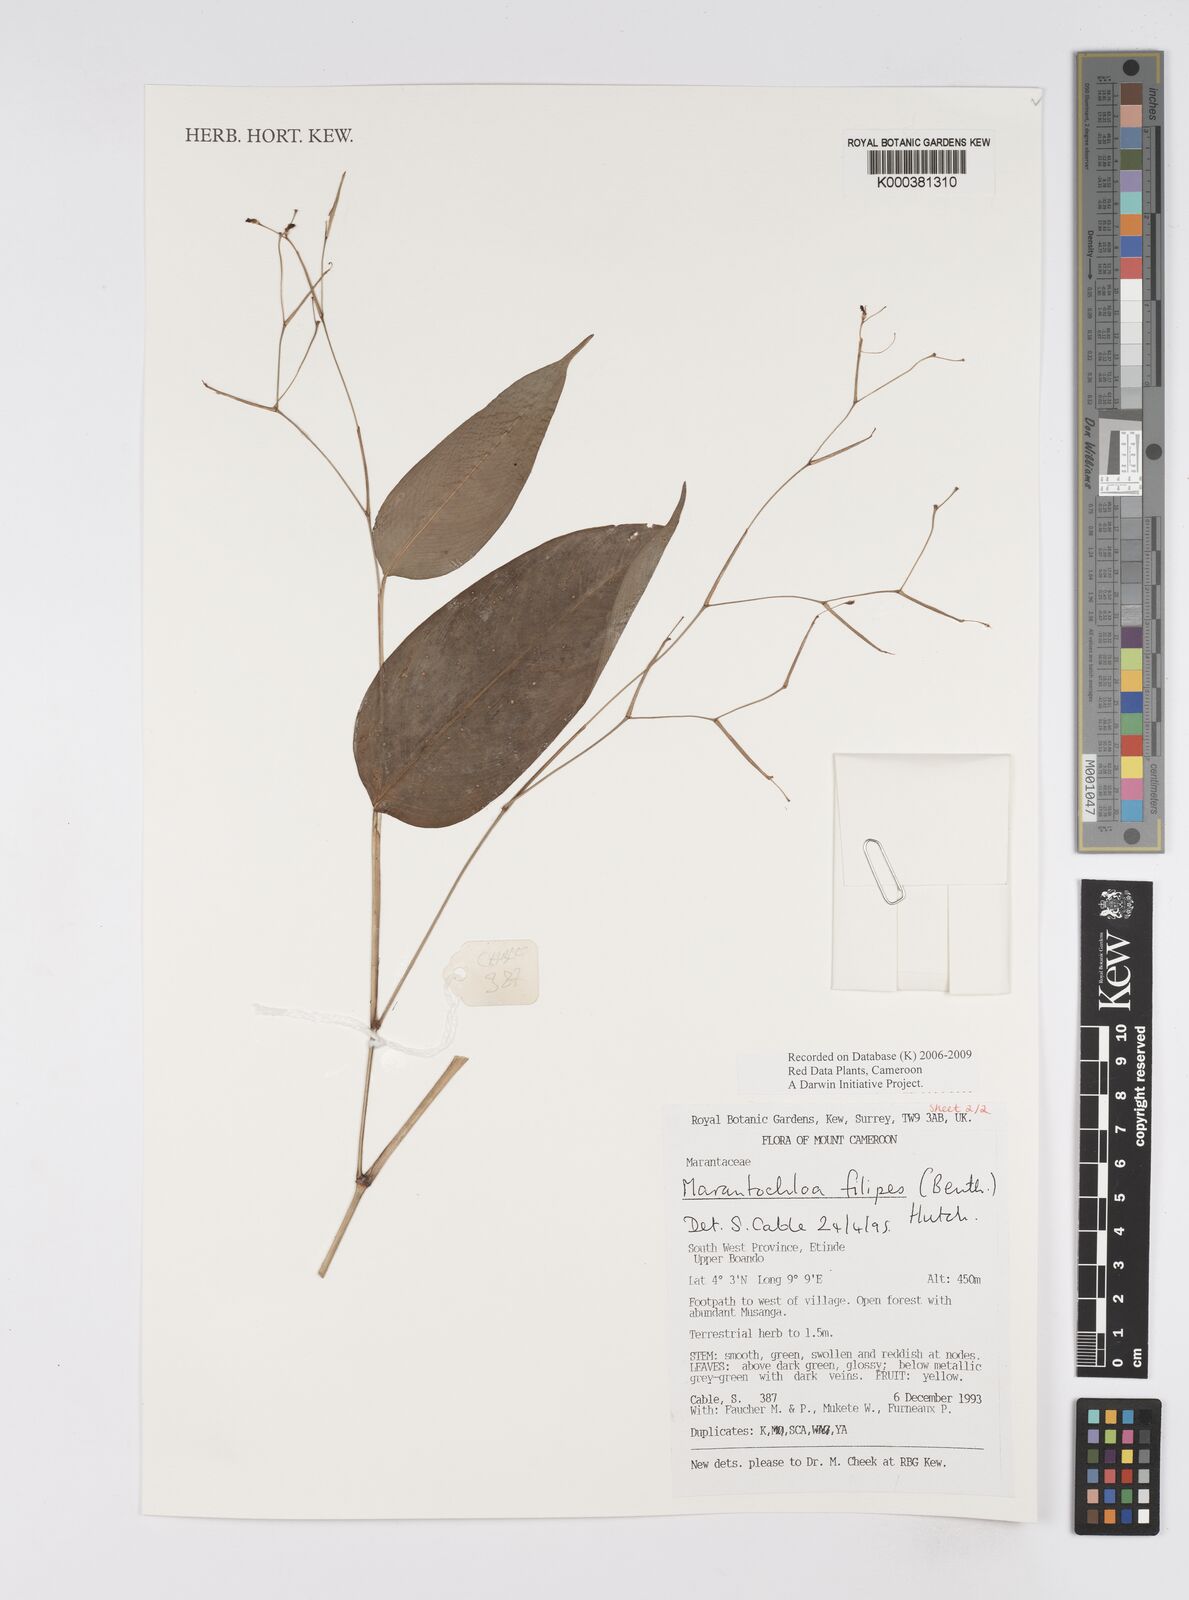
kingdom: Plantae
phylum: Tracheophyta
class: Liliopsida
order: Zingiberales
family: Marantaceae
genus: Marantochloa
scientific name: Marantochloa filipes
